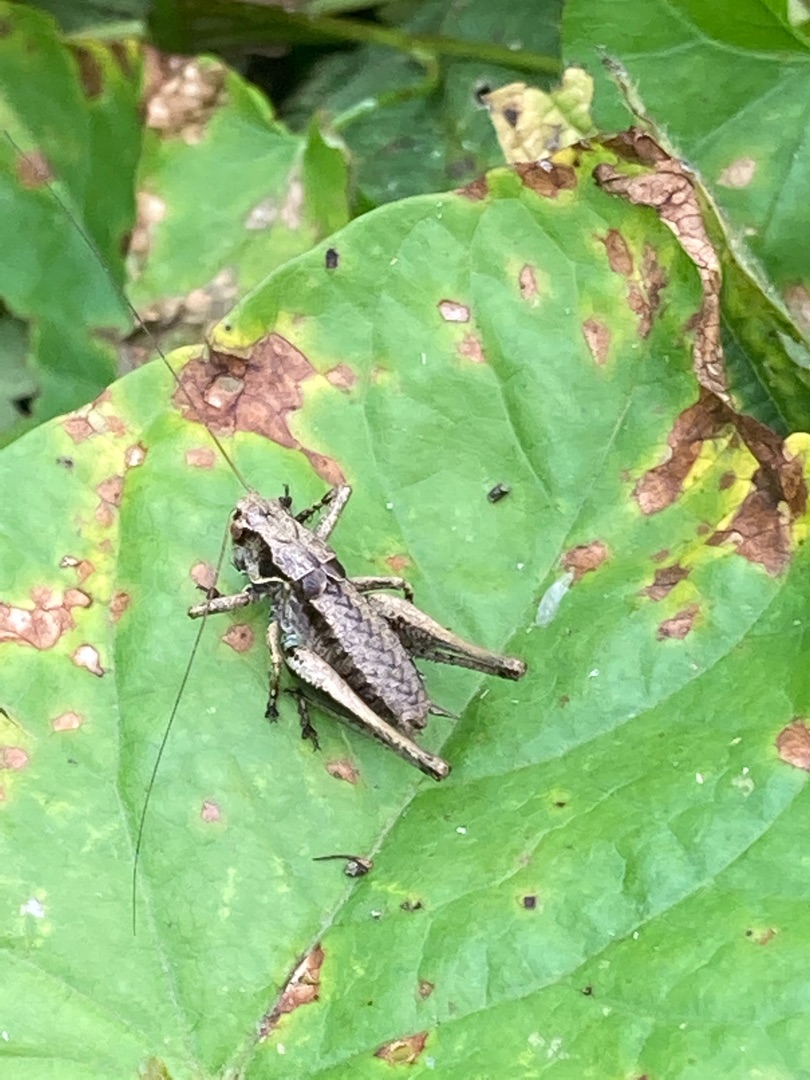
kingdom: Animalia
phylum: Arthropoda
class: Insecta
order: Orthoptera
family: Tettigoniidae
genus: Pholidoptera
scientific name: Pholidoptera griseoaptera
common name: Buskgræshoppe
